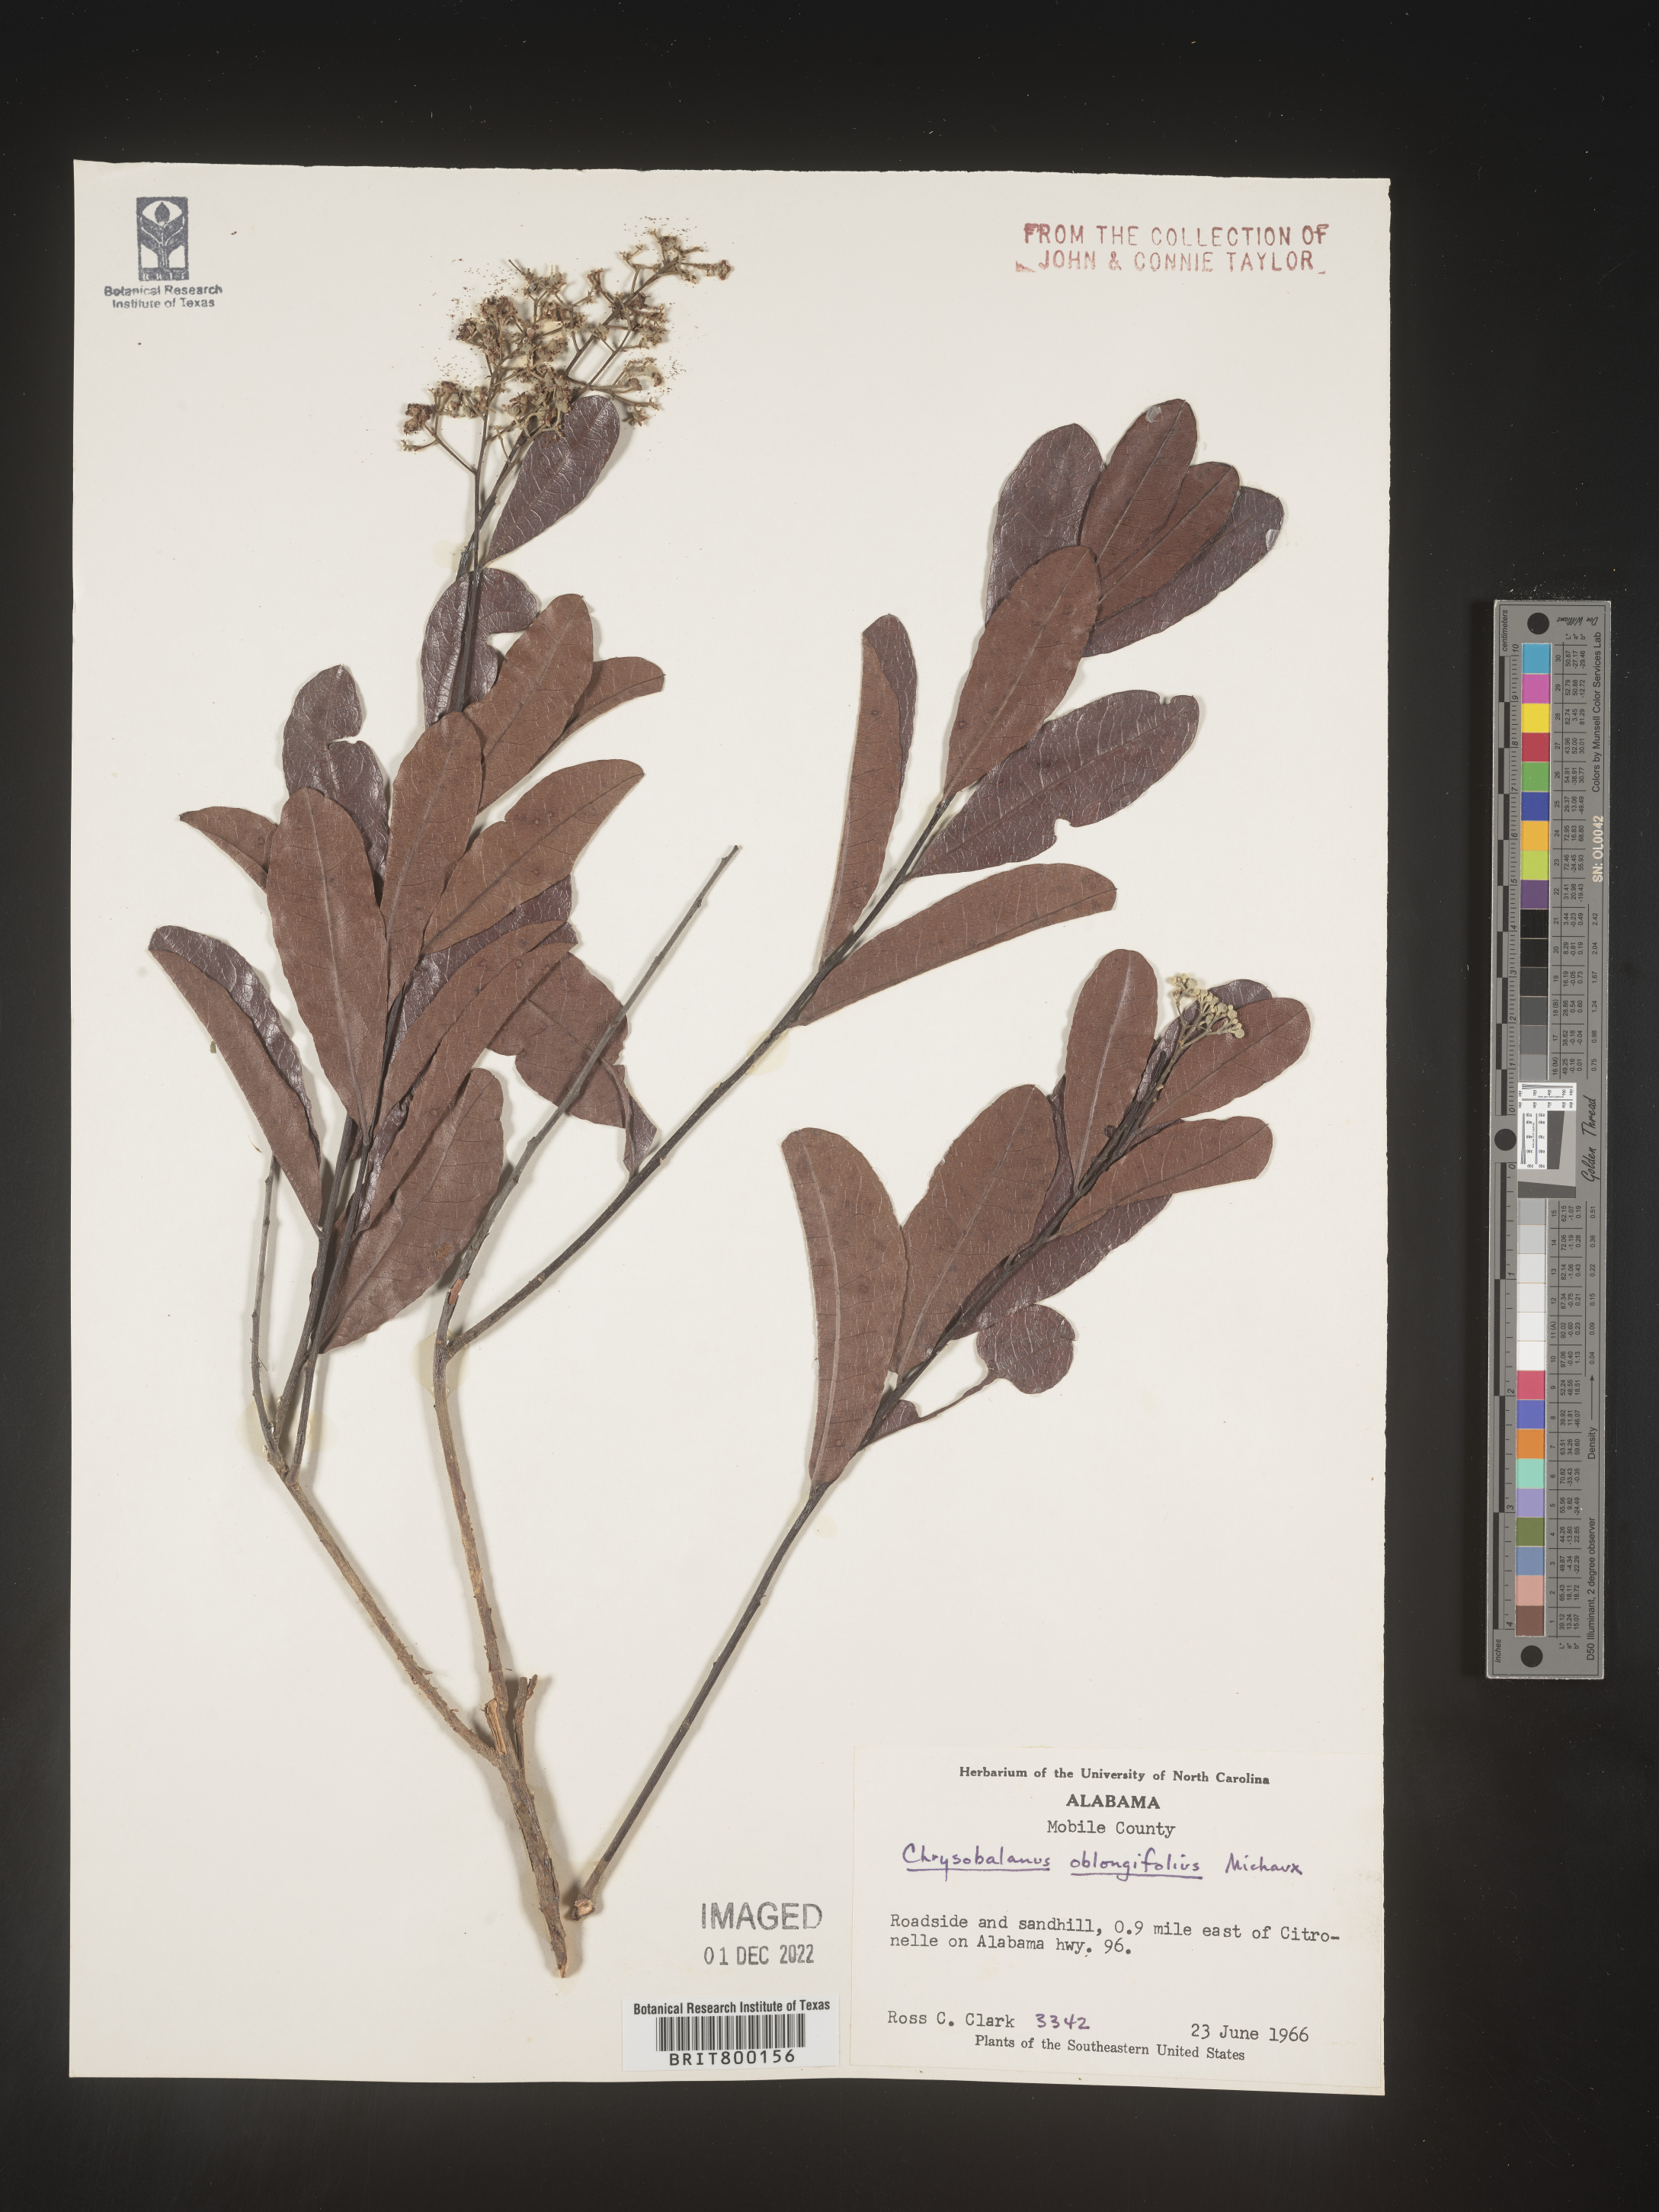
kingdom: Plantae
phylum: Tracheophyta
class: Magnoliopsida
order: Malpighiales
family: Chrysobalanaceae
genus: Geobalanus
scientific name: Geobalanus oblongifolius
